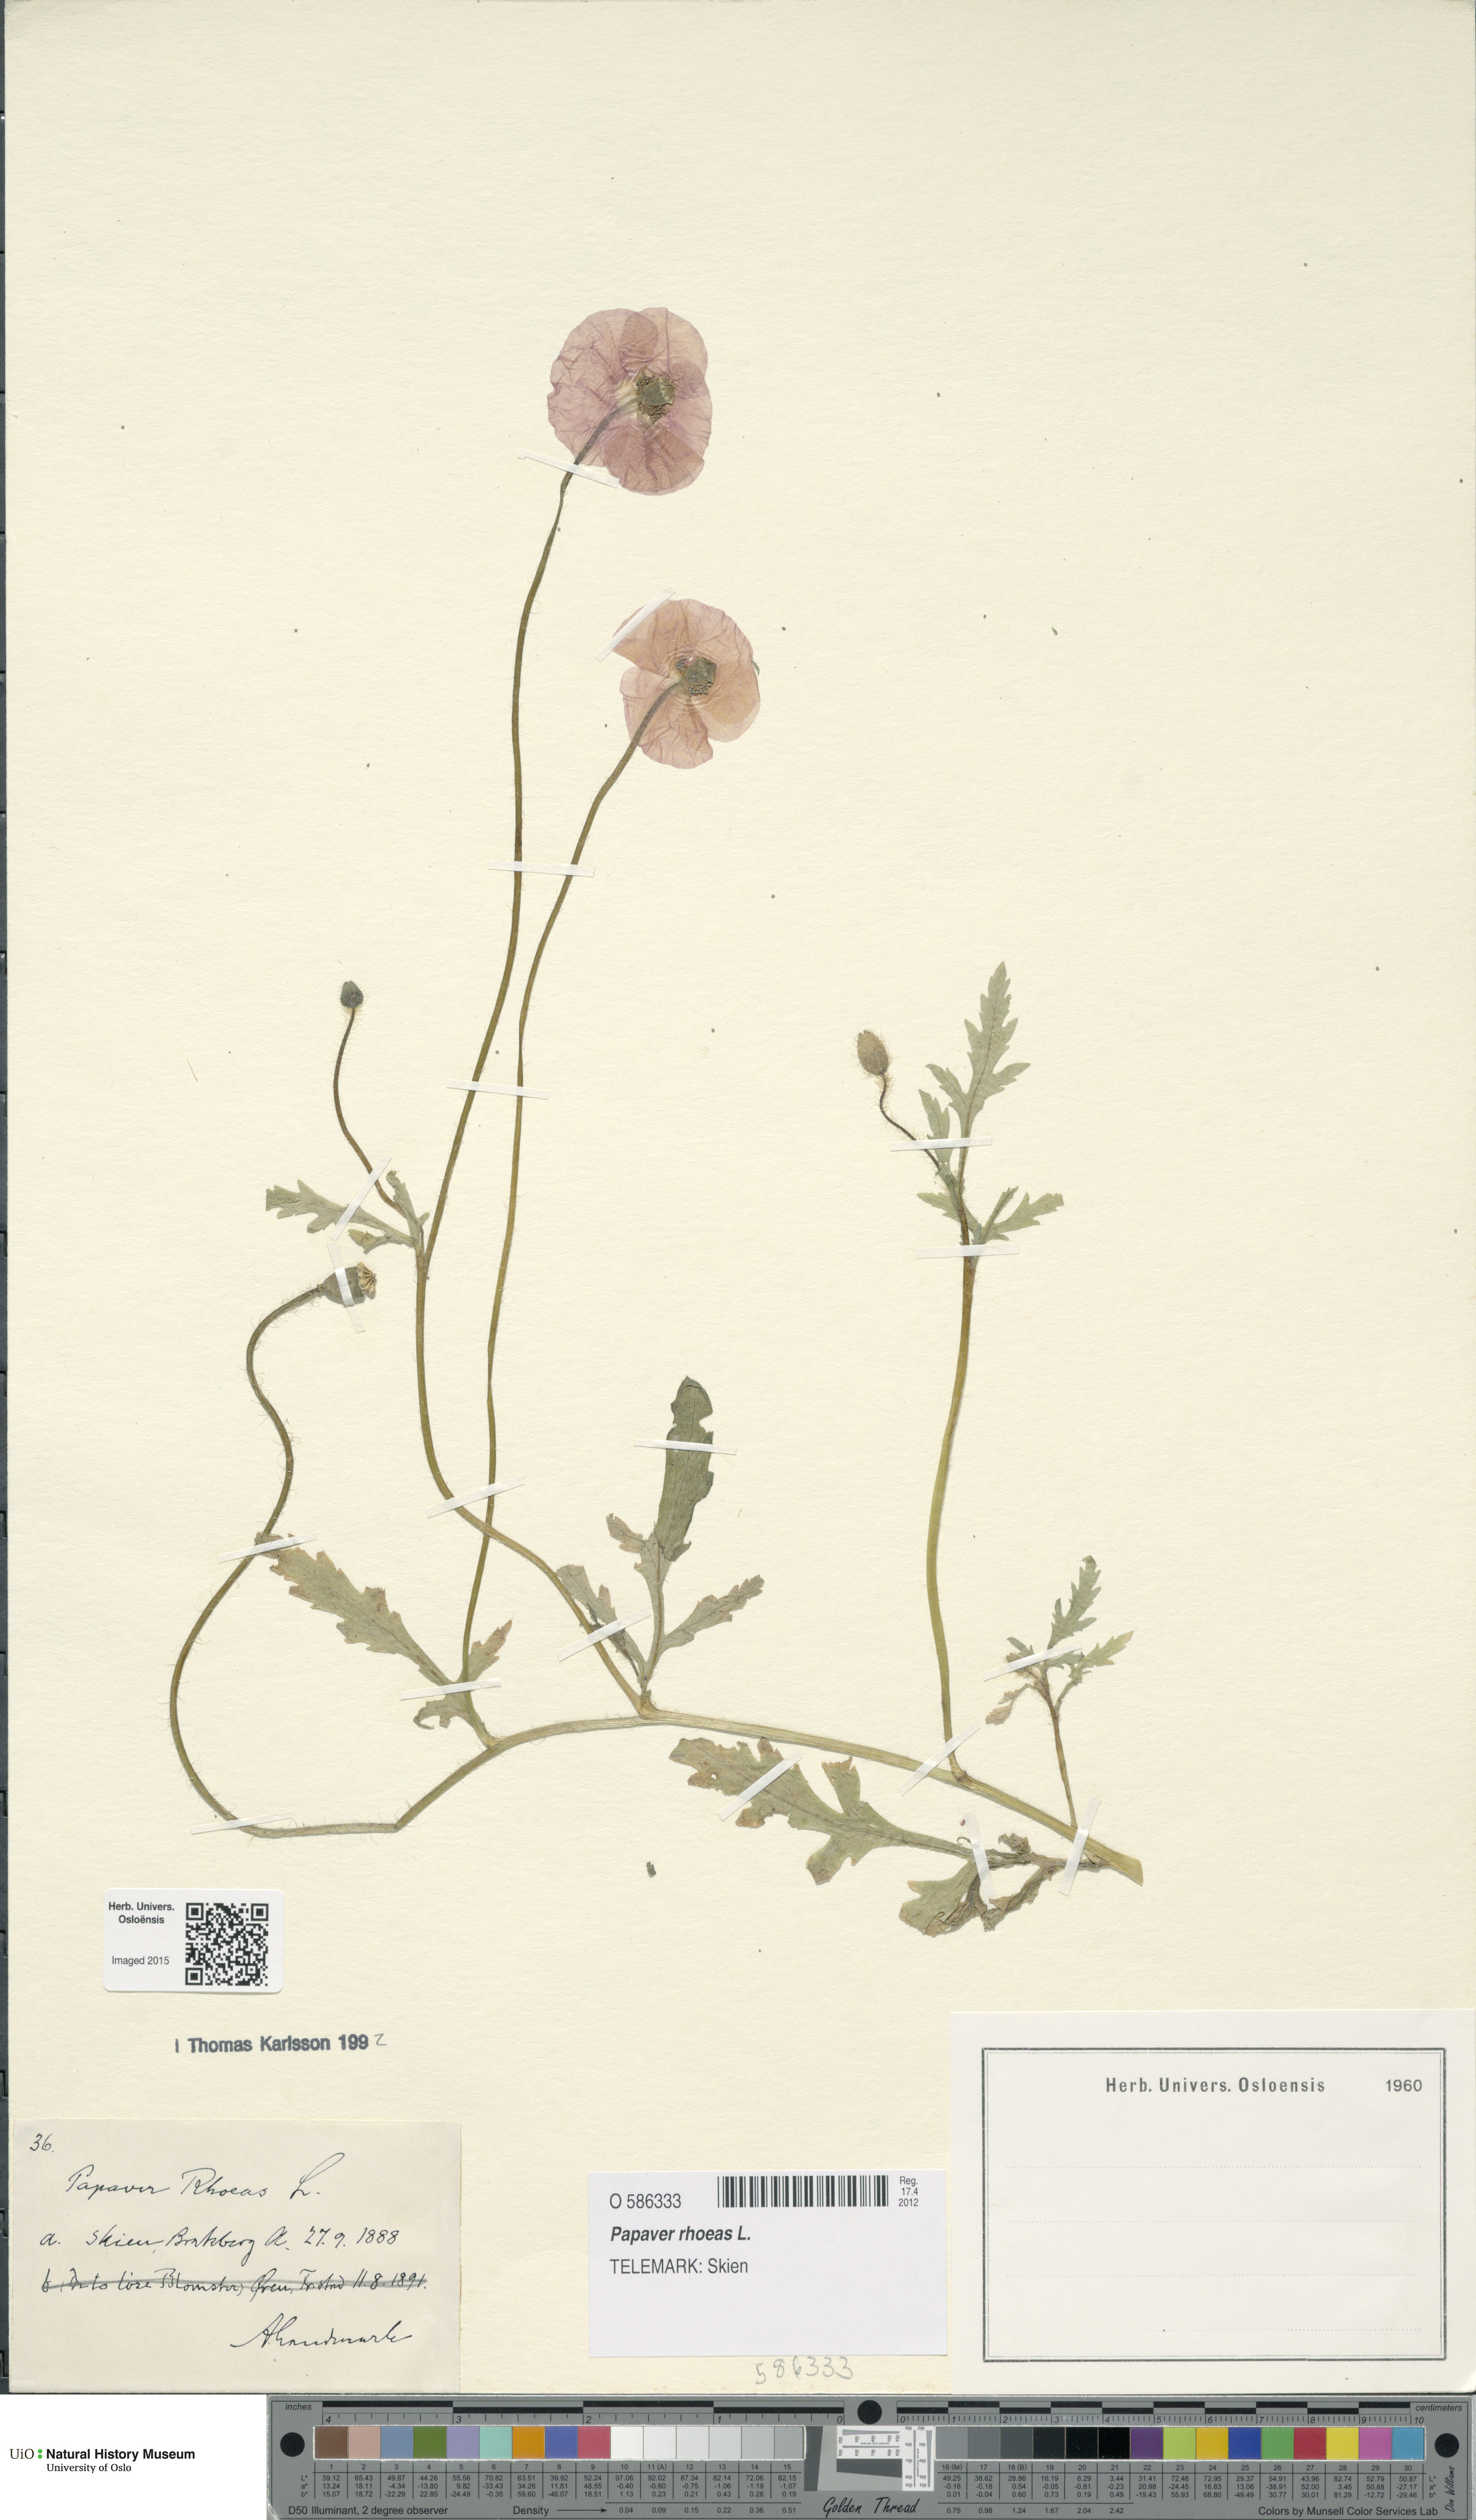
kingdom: Plantae
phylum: Tracheophyta
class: Magnoliopsida
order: Ranunculales
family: Papaveraceae
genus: Papaver
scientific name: Papaver rhoeas
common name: Corn poppy
